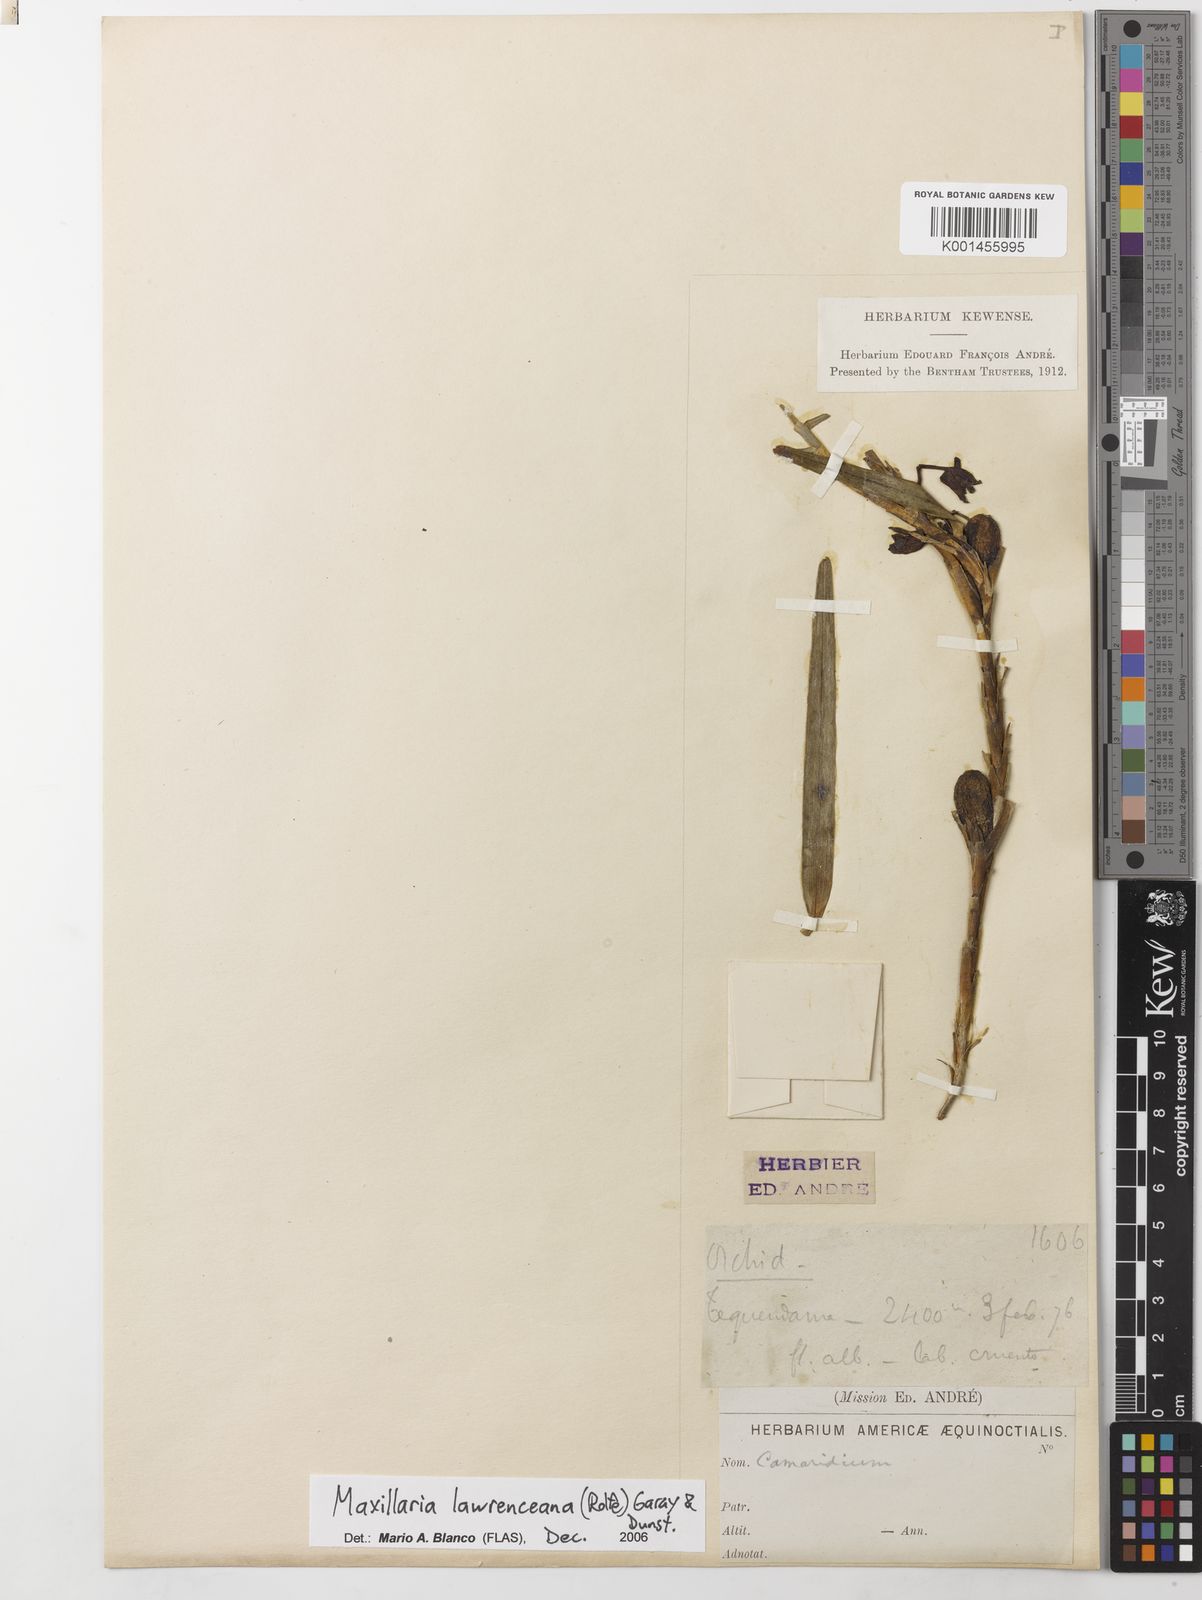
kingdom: Plantae
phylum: Tracheophyta
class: Liliopsida
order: Asparagales
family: Orchidaceae
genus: Maxillaria
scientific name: Maxillaria lawrenceana
